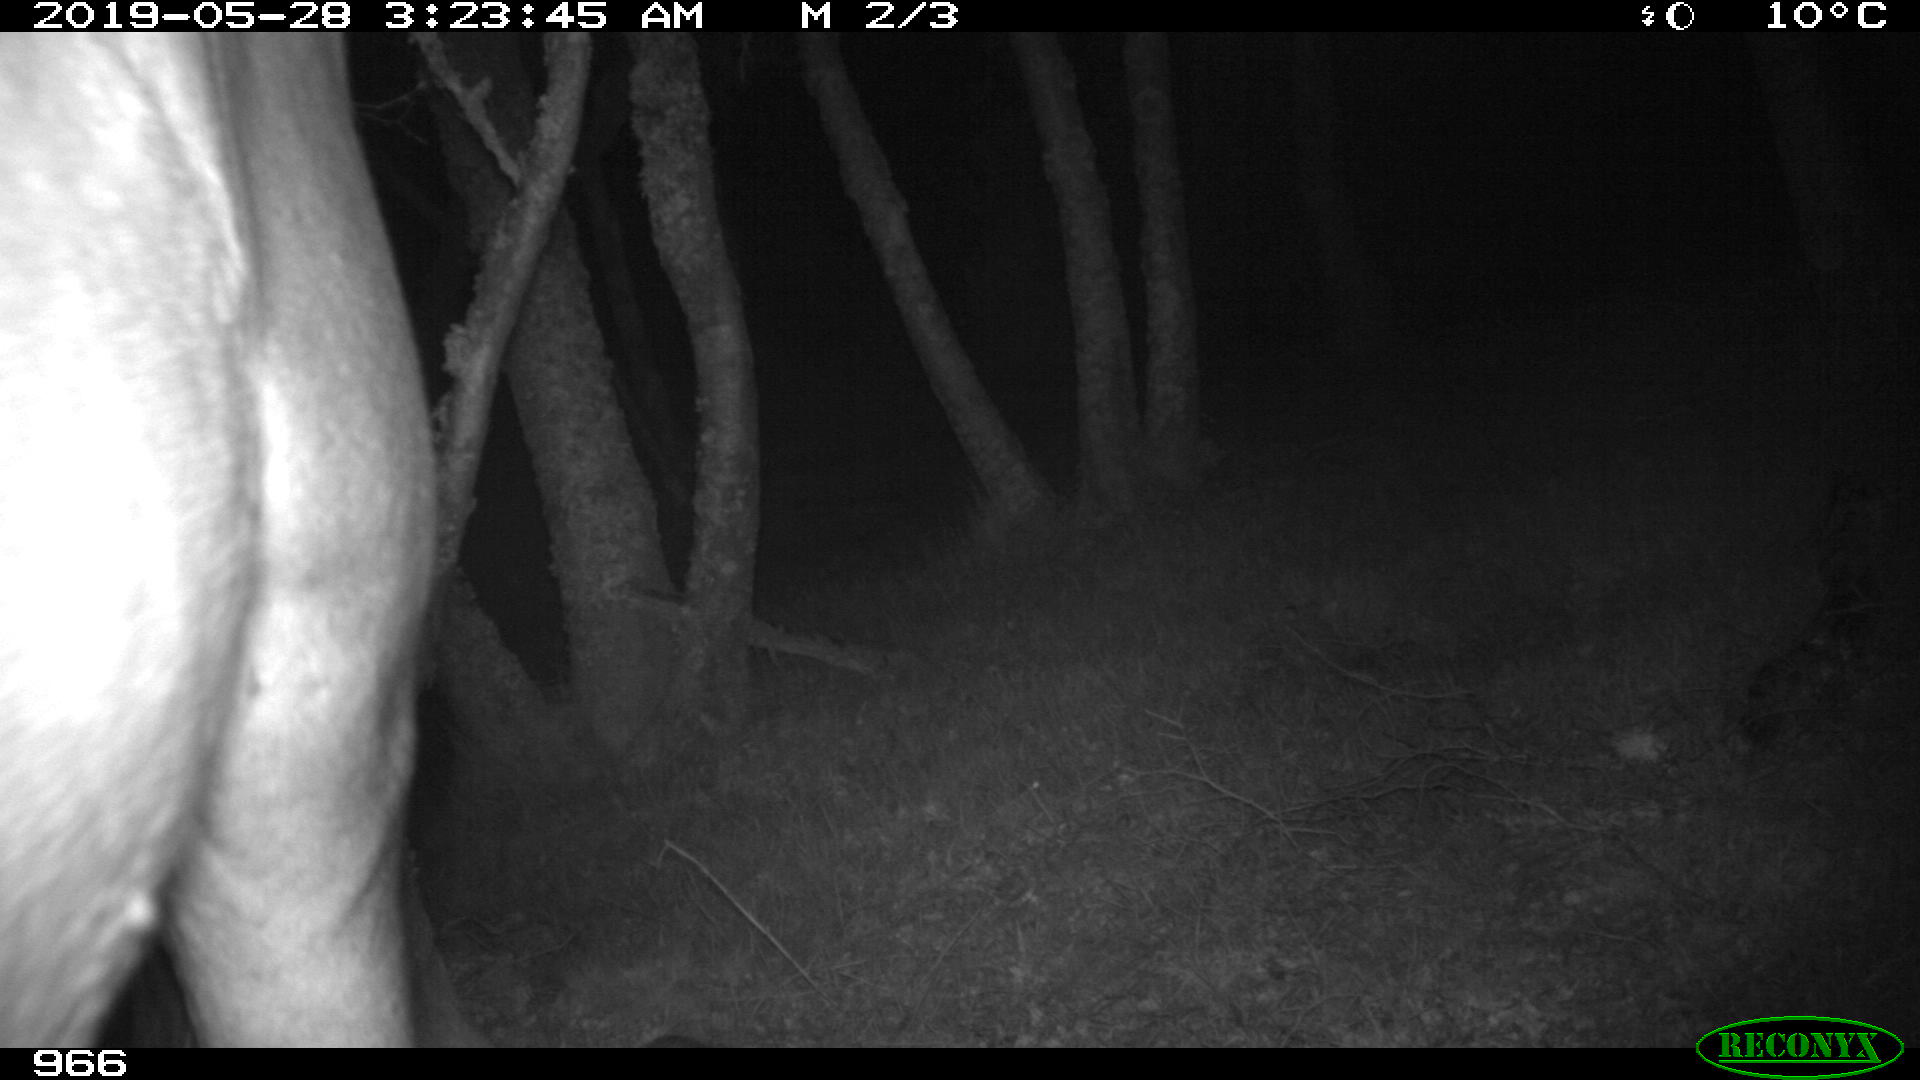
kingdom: Animalia
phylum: Chordata
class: Mammalia
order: Perissodactyla
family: Equidae
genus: Equus
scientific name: Equus caballus
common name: Horse
